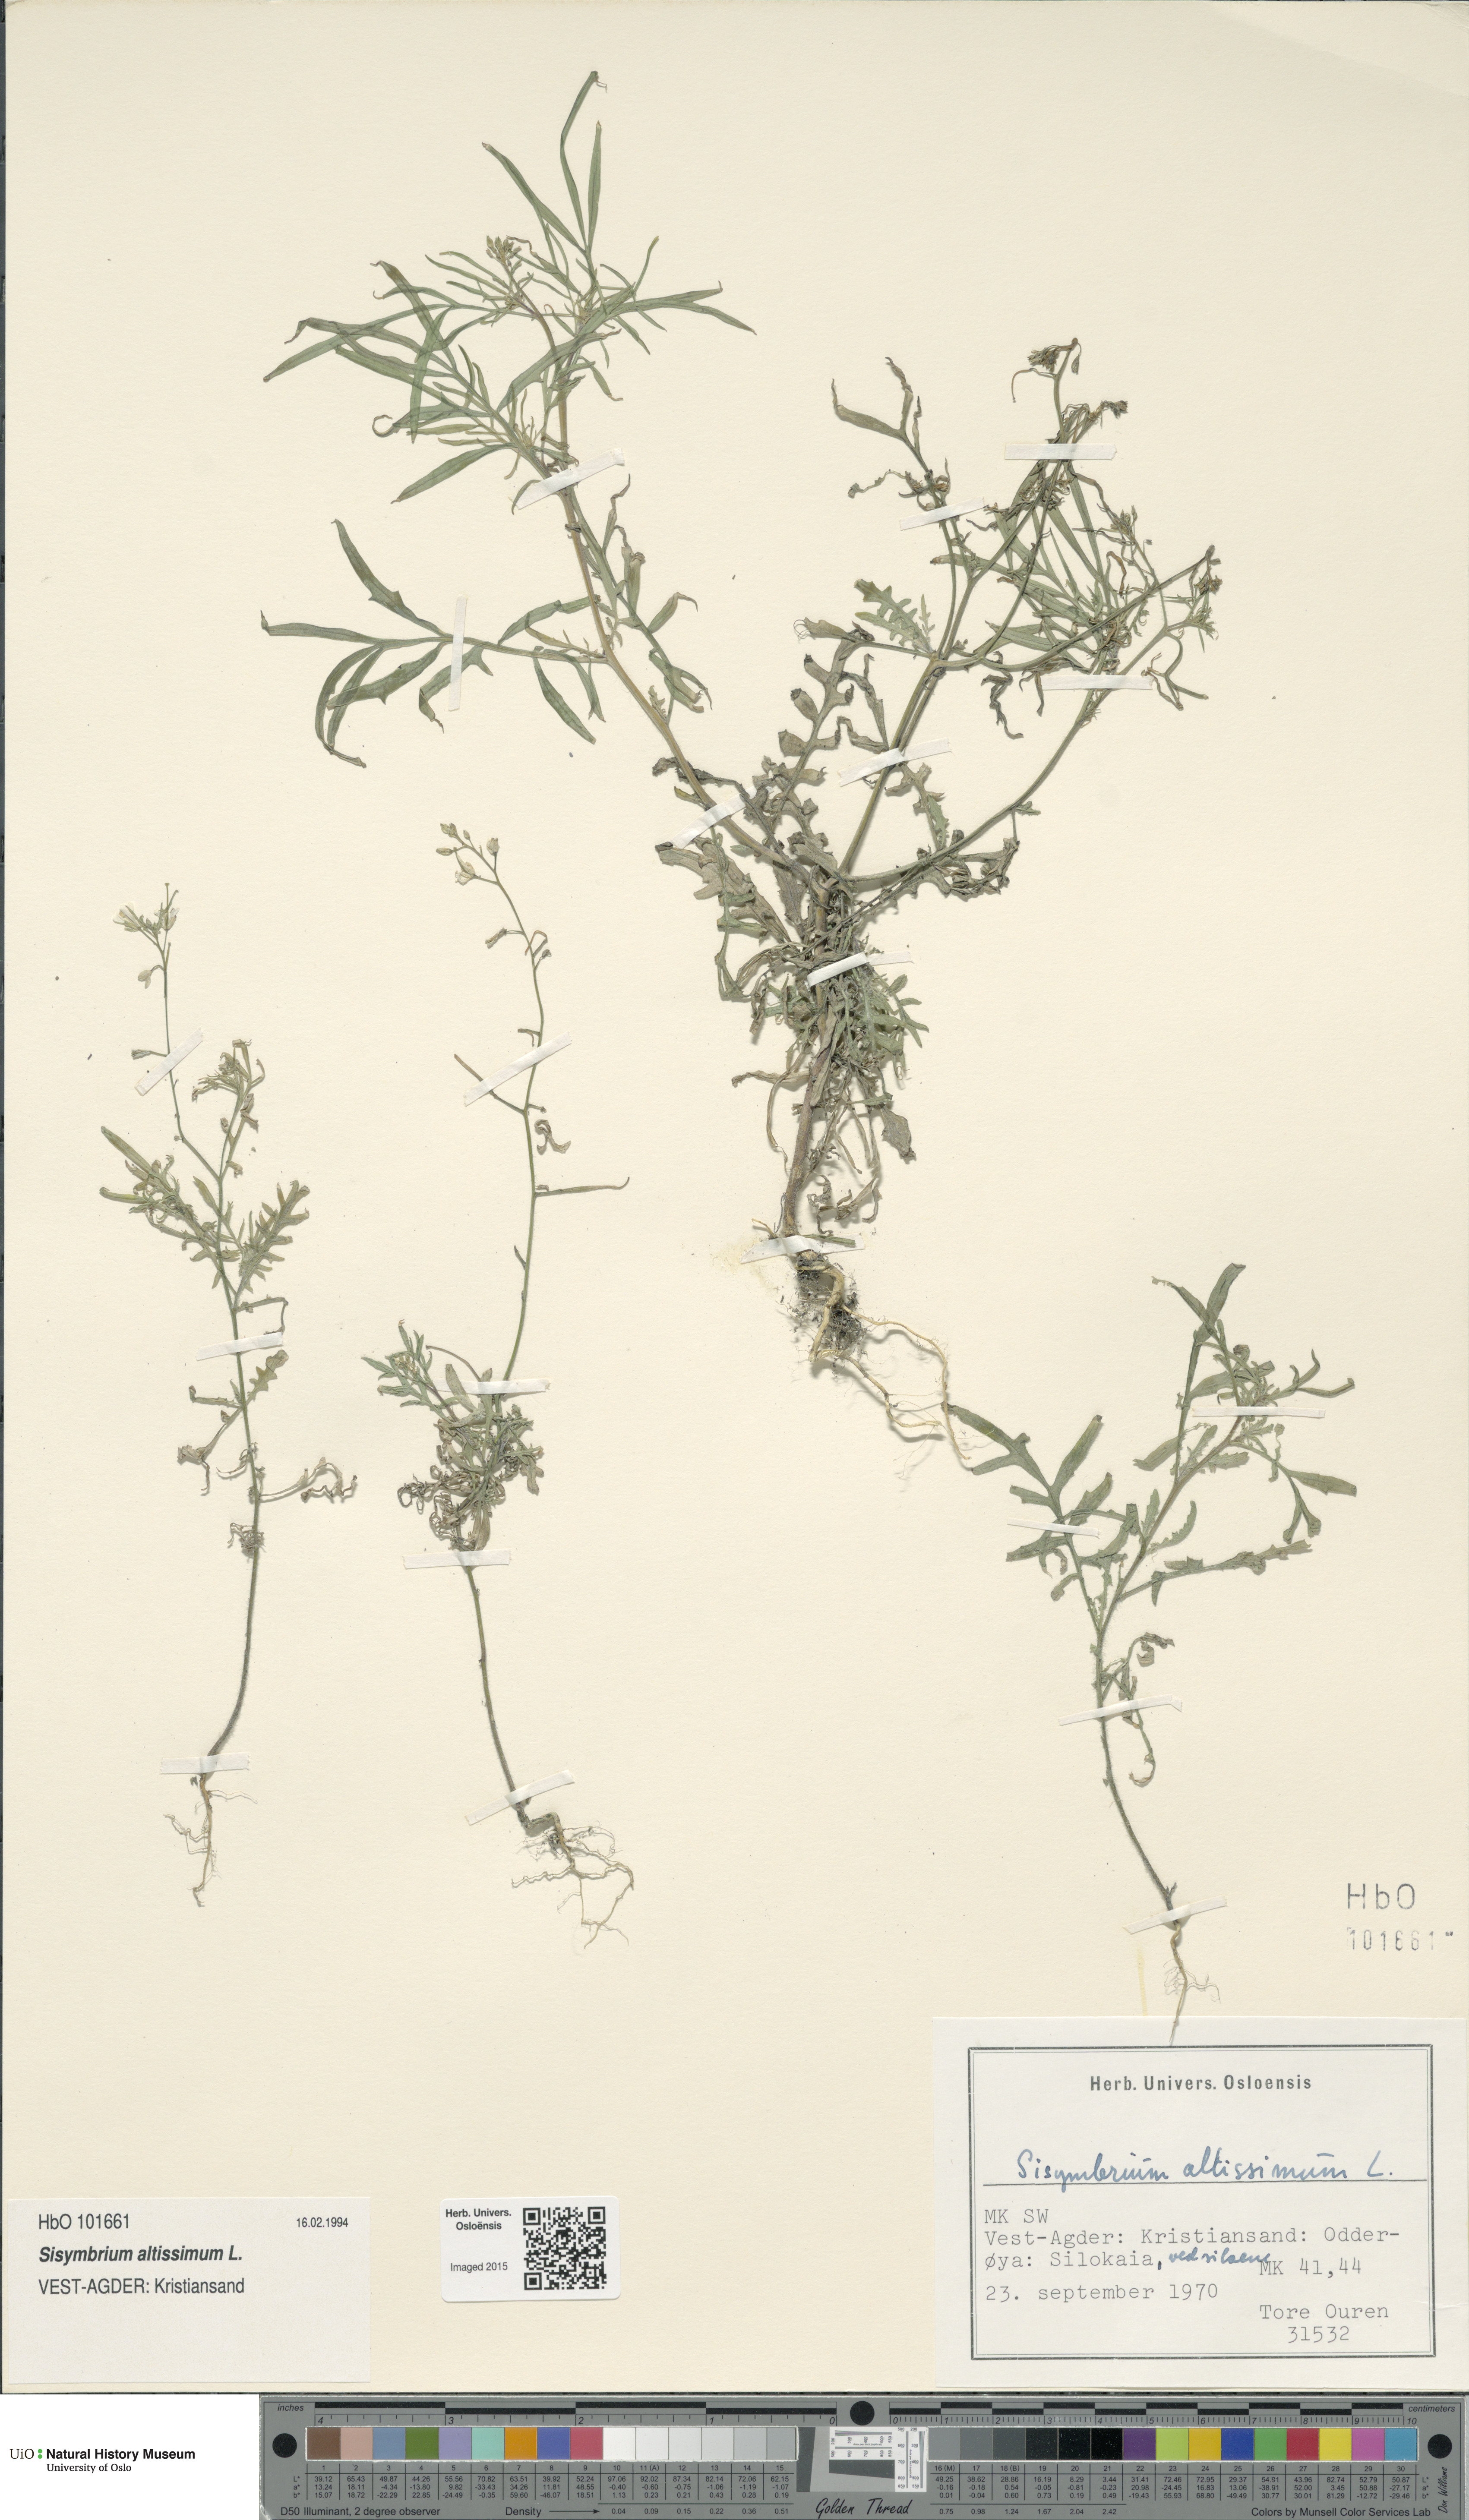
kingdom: Plantae
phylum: Tracheophyta
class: Magnoliopsida
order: Brassicales
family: Brassicaceae
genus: Sisymbrium
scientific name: Sisymbrium altissimum
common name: Tall rocket
